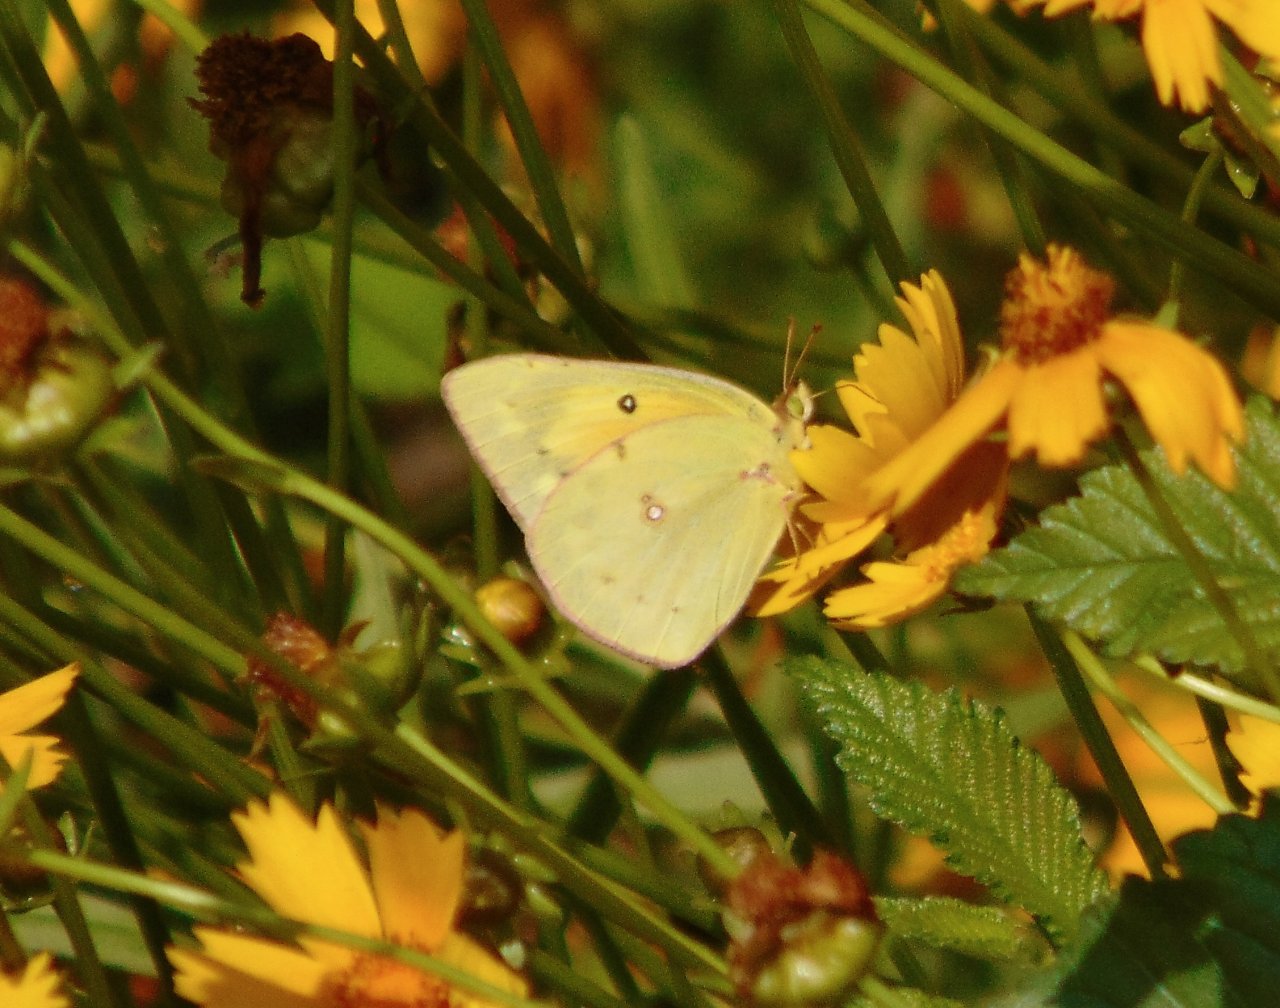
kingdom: Animalia
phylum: Arthropoda
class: Insecta
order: Lepidoptera
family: Pieridae
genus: Colias
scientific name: Colias eurytheme
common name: Orange Sulphur
